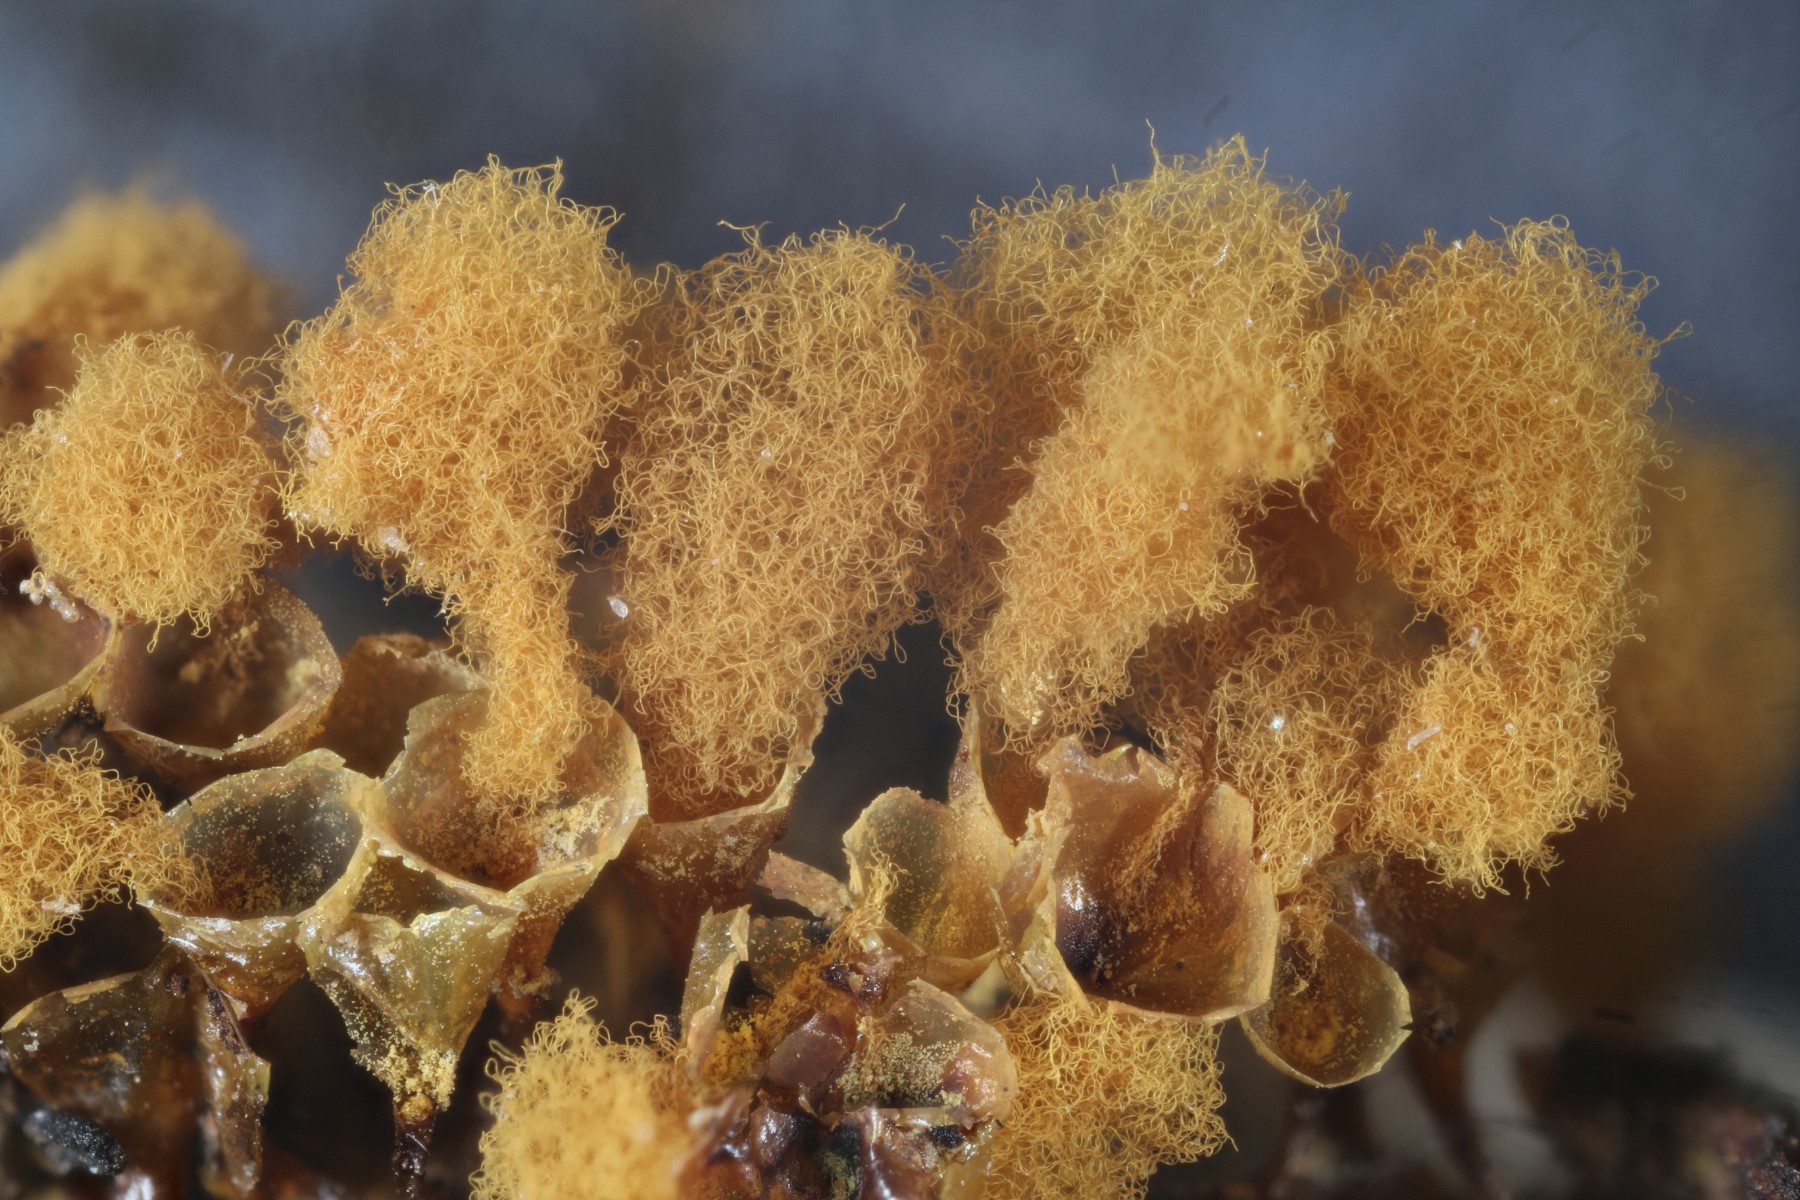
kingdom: Protozoa
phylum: Mycetozoa
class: Myxomycetes
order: Trichiales
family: Arcyriaceae
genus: Hemitrichia
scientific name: Hemitrichia clavata
